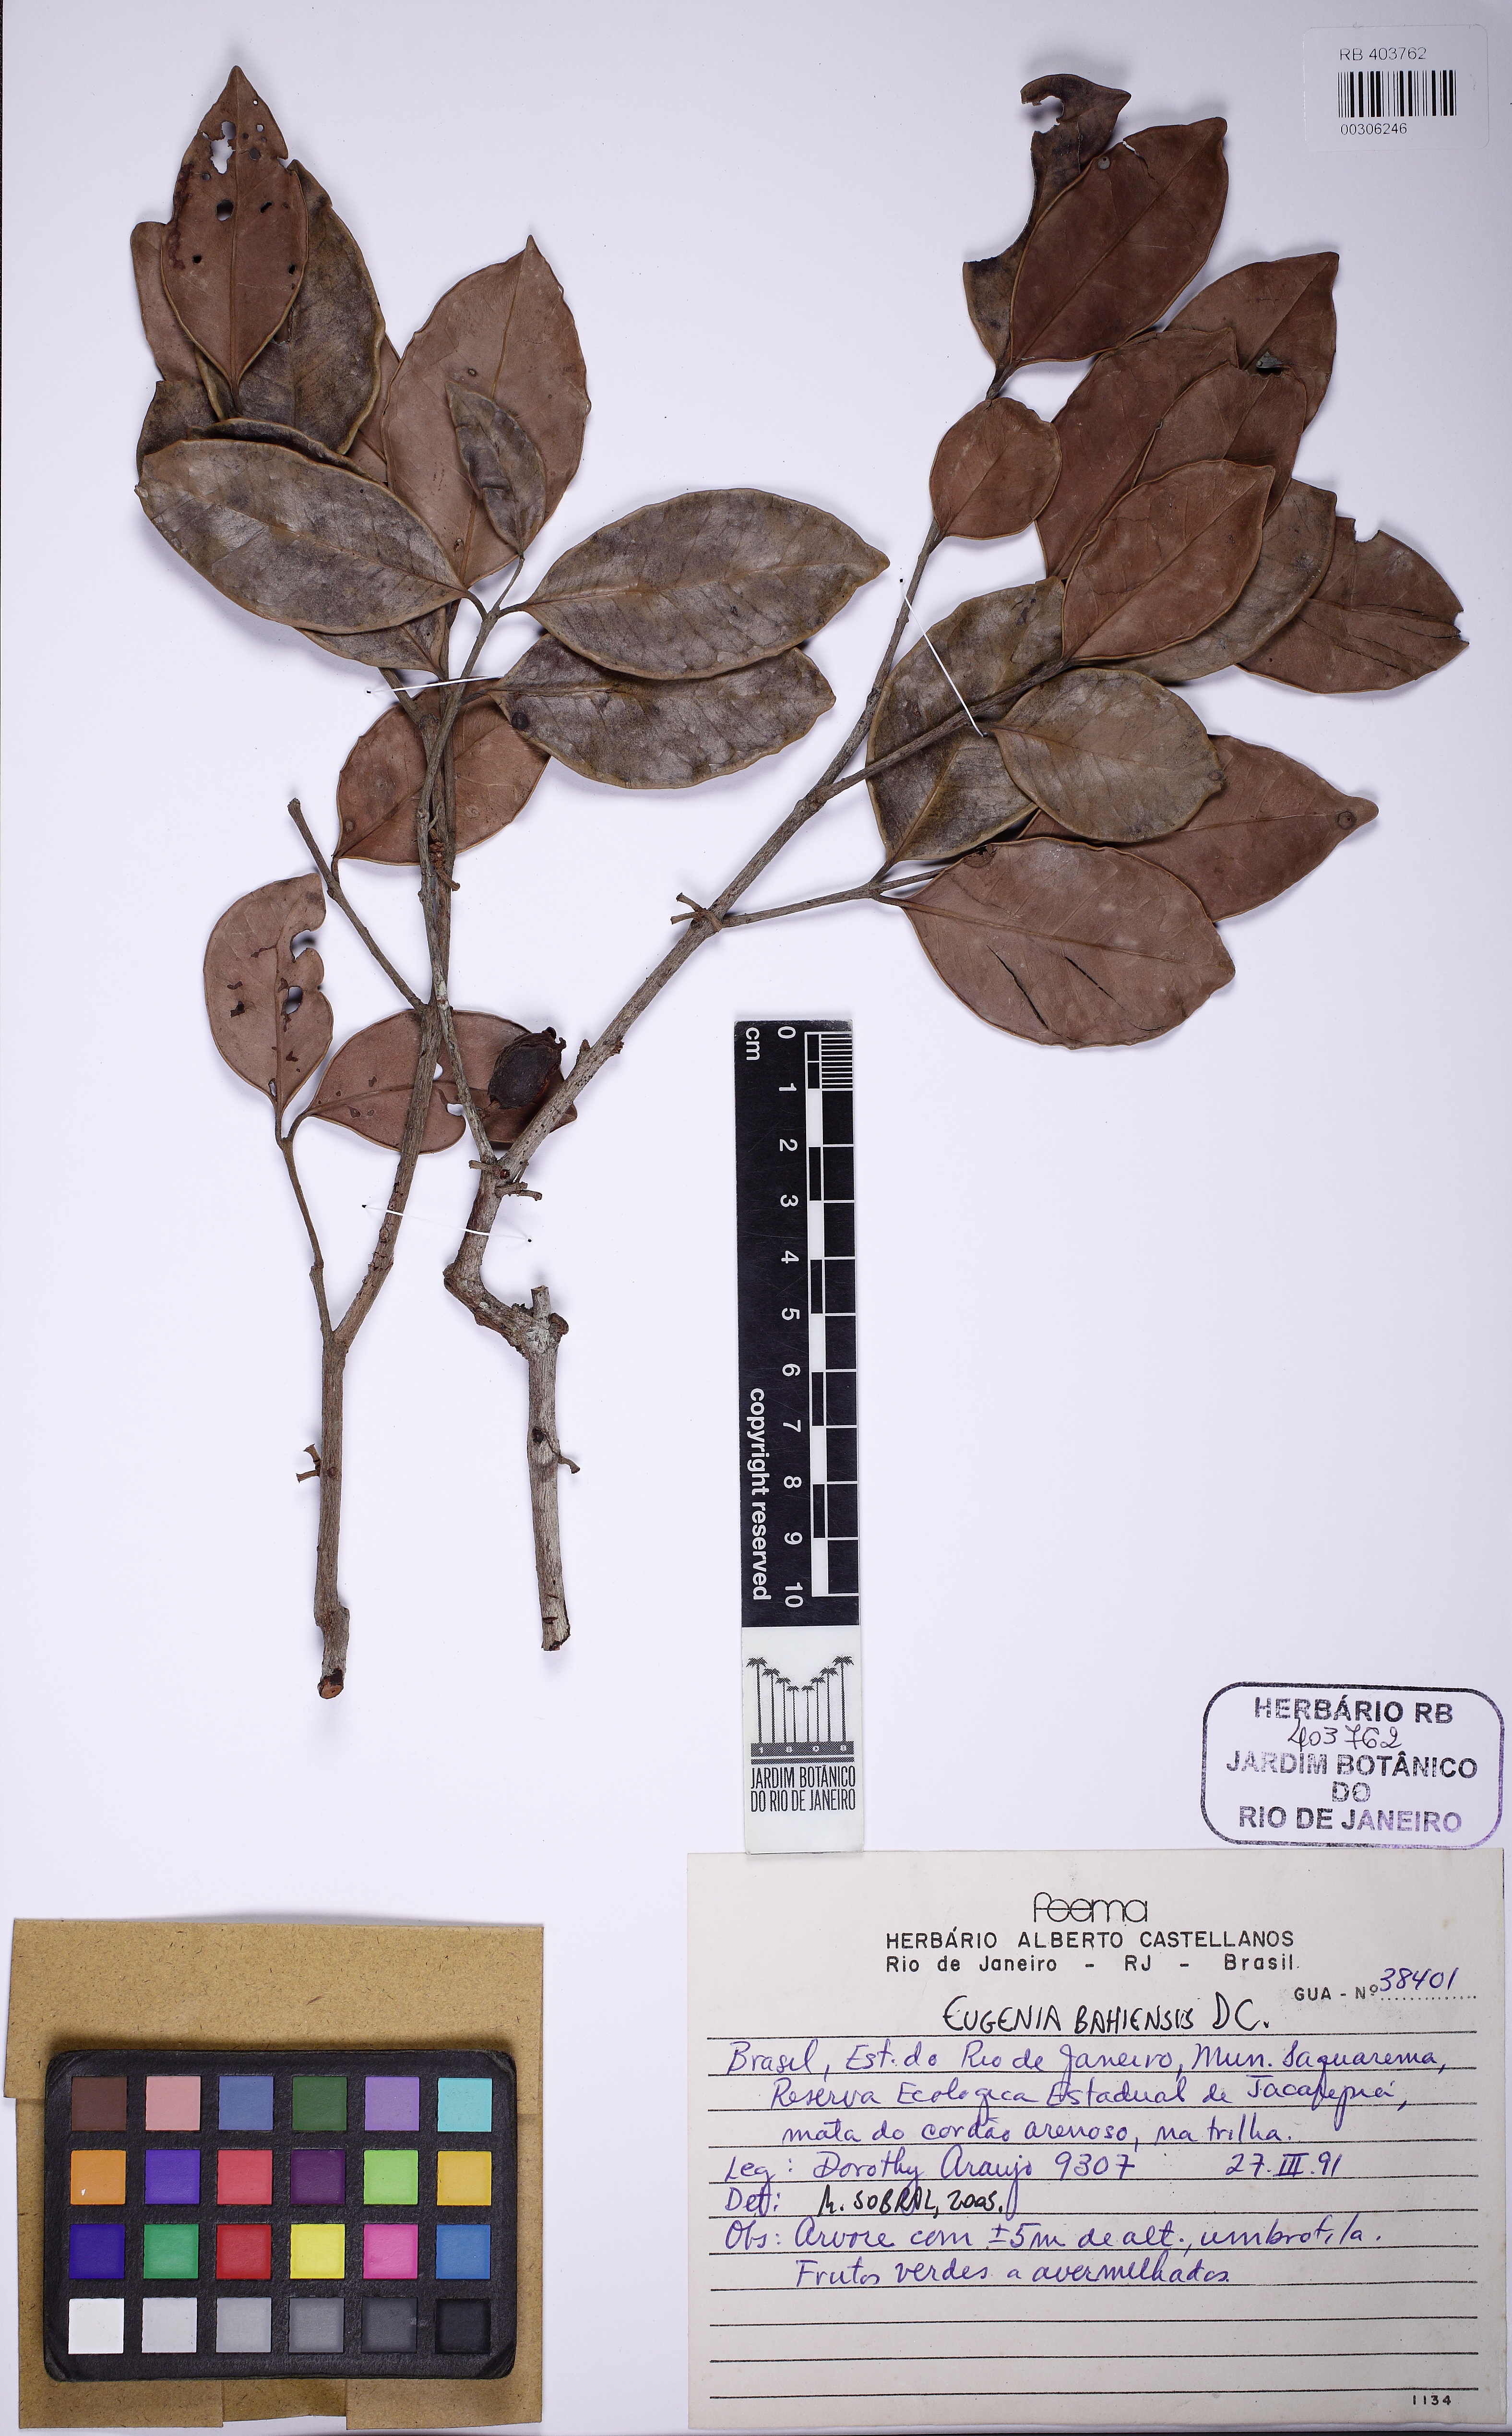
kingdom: Plantae
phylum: Tracheophyta
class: Magnoliopsida
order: Myrtales
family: Myrtaceae
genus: Eugenia
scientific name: Eugenia bahiensis
